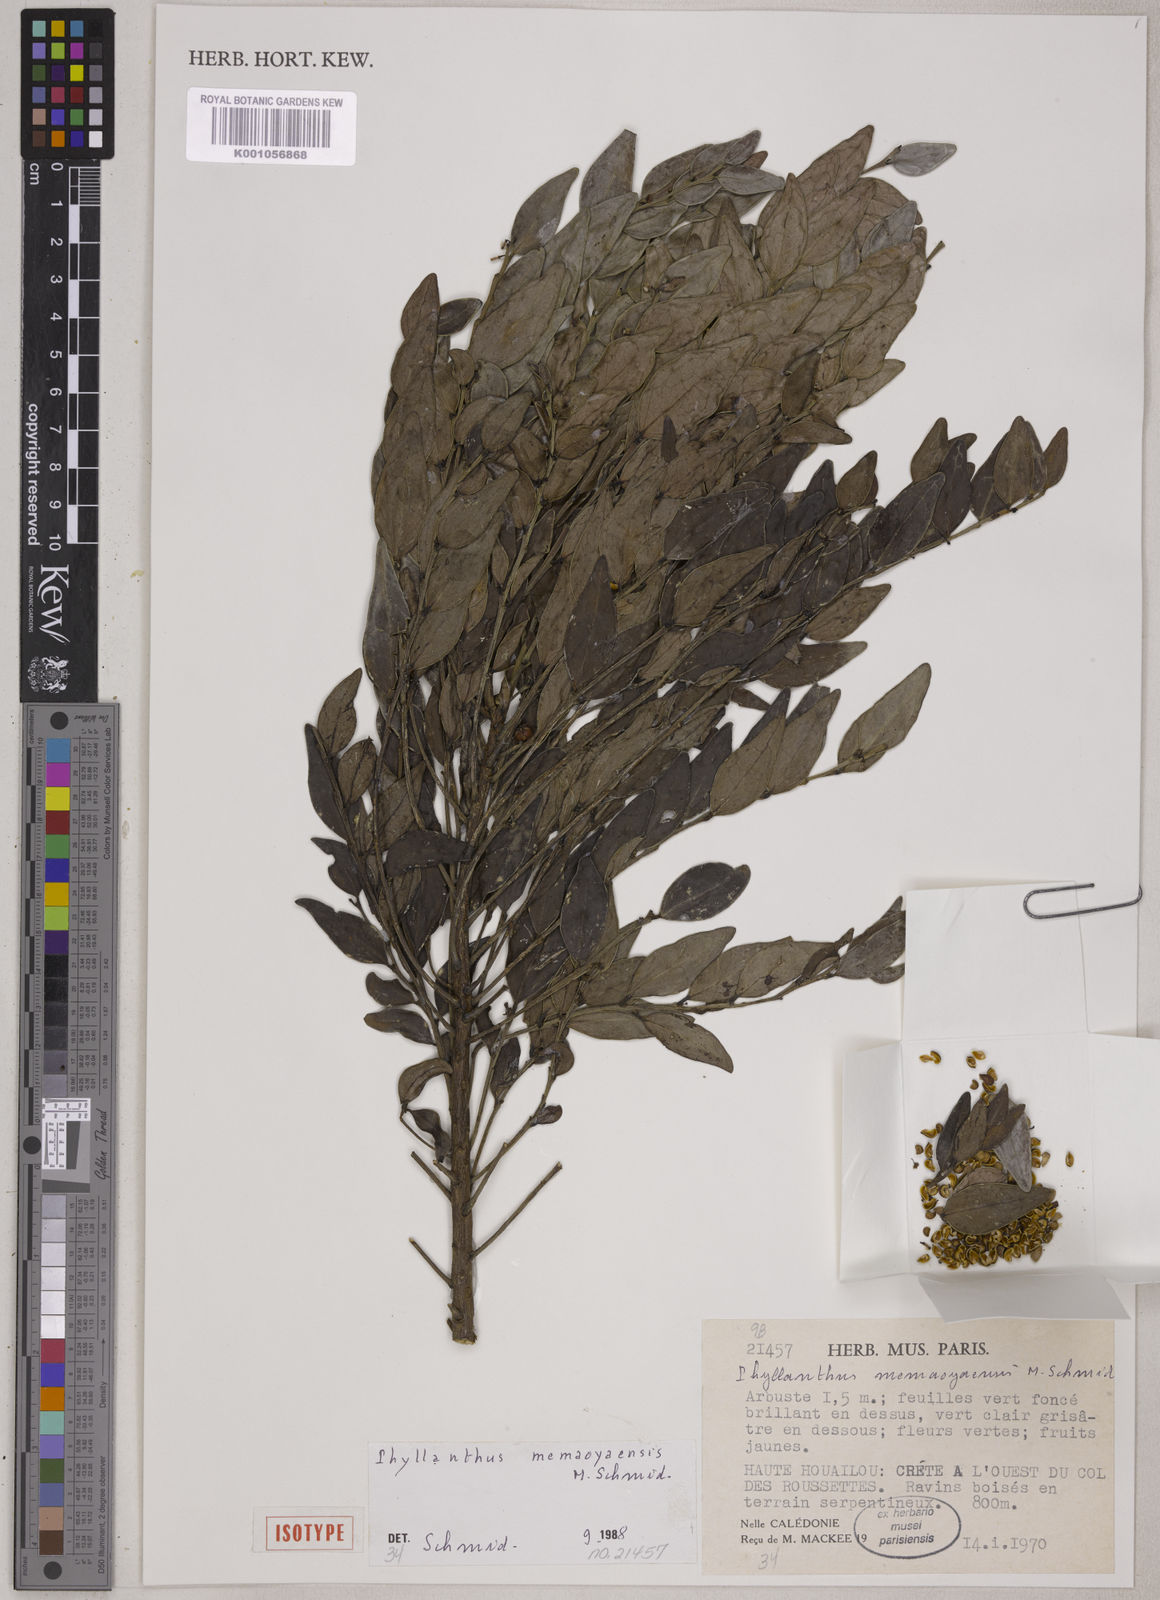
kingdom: Plantae
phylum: Tracheophyta
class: Magnoliopsida
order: Malpighiales
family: Phyllanthaceae
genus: Phyllanthus
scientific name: Phyllanthus memaoyaensis
